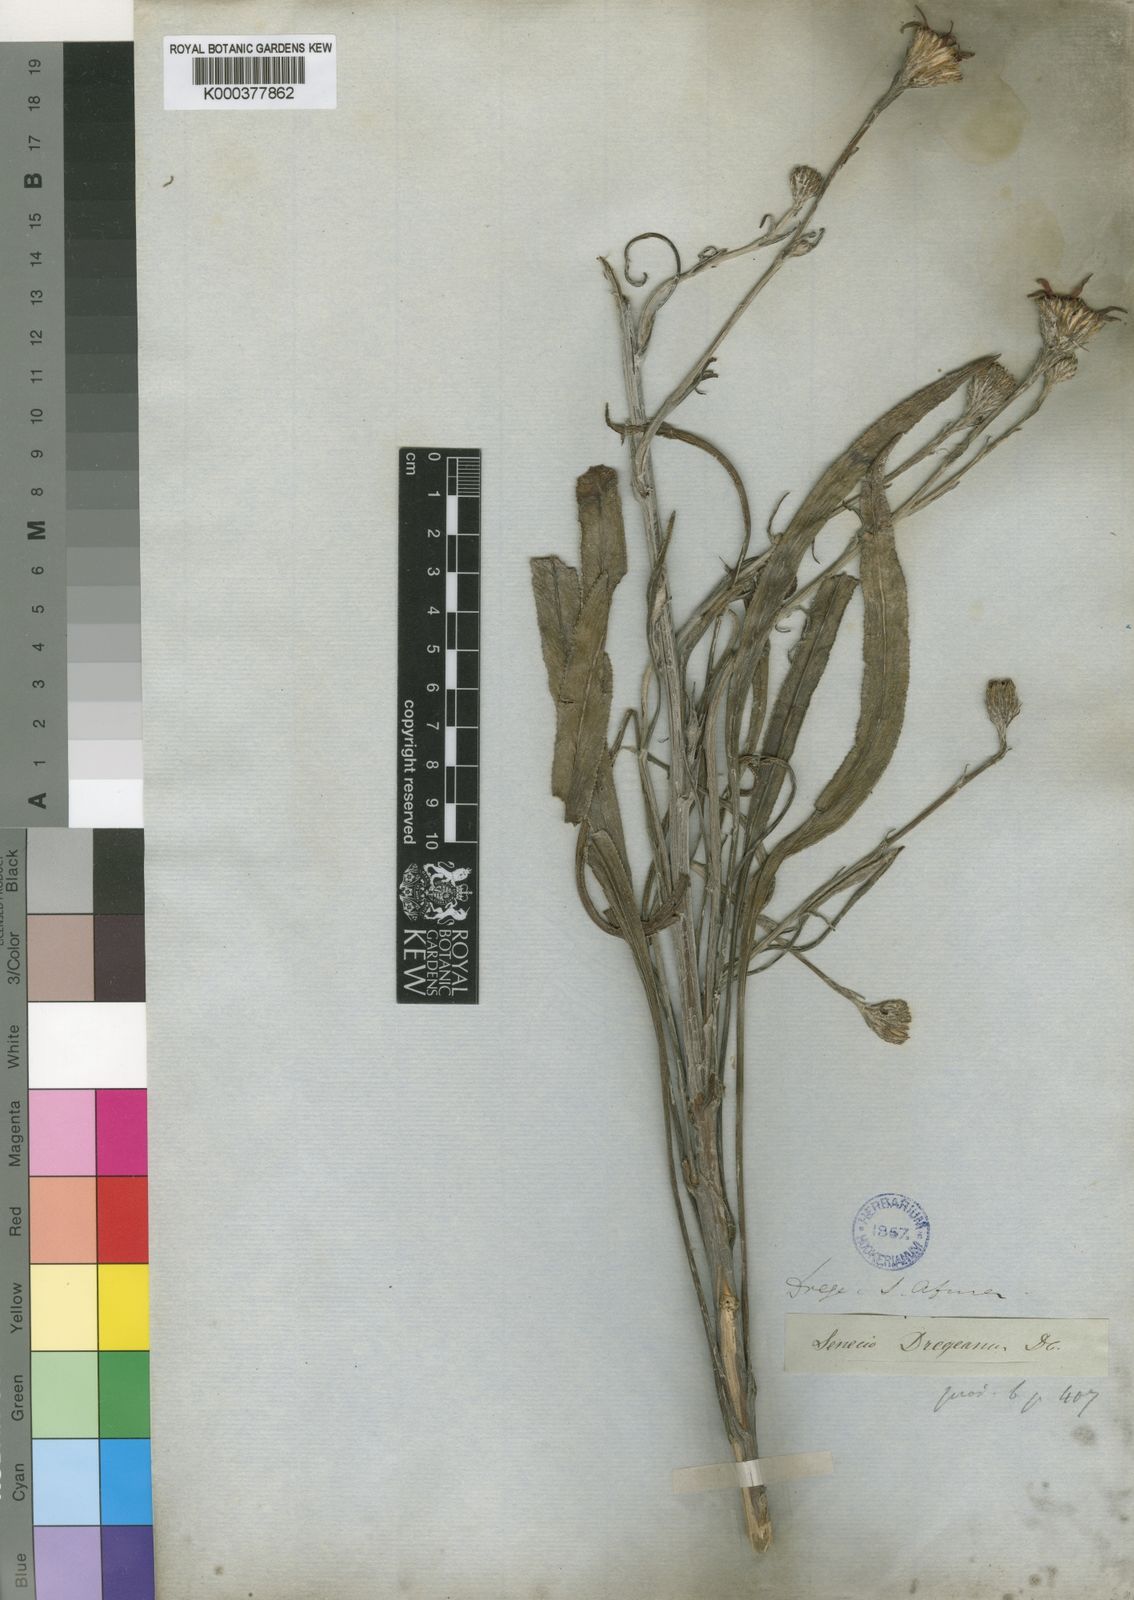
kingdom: Plantae
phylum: Tracheophyta
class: Magnoliopsida
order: Asterales
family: Asteraceae
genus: Senecio
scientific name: Senecio dregeanus
